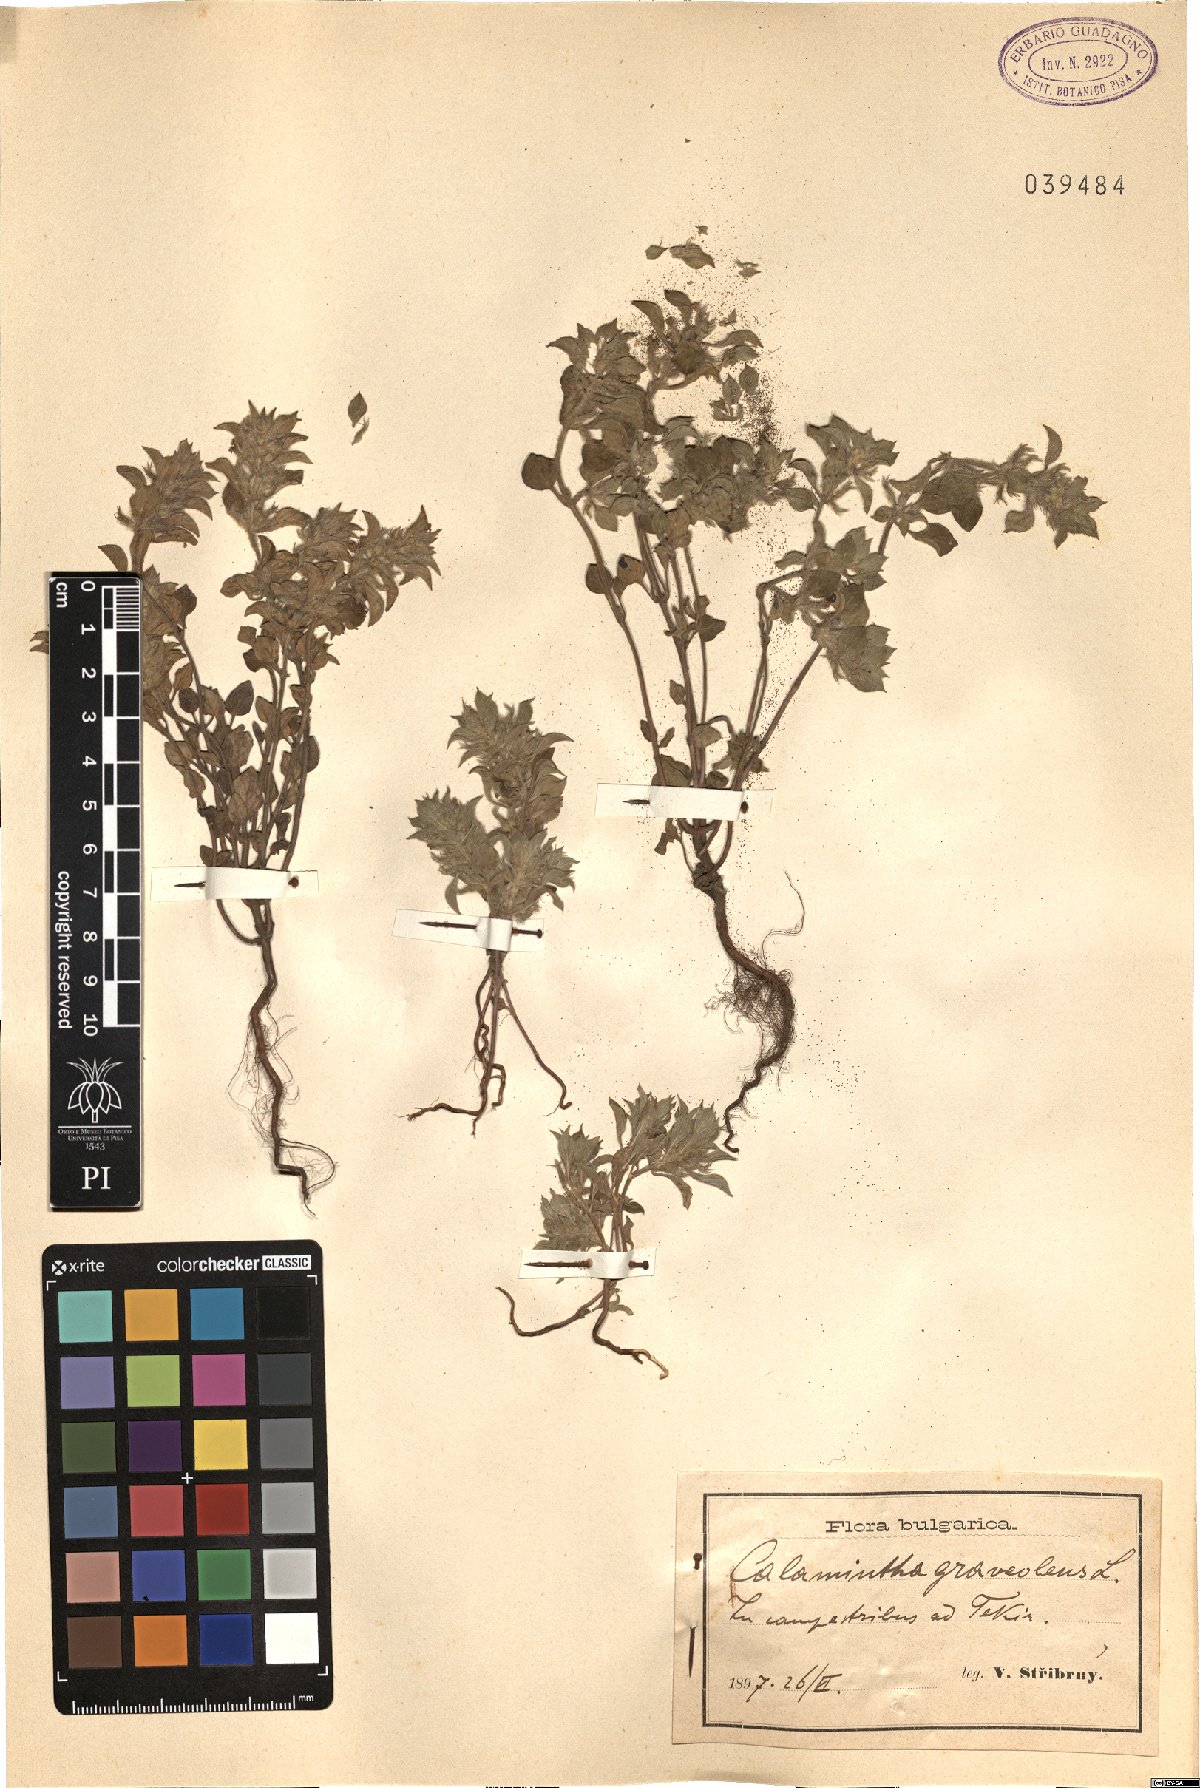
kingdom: Plantae
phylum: Tracheophyta
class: Magnoliopsida
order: Lamiales
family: Lamiaceae
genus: Clinopodium
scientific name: Clinopodium graveolens
